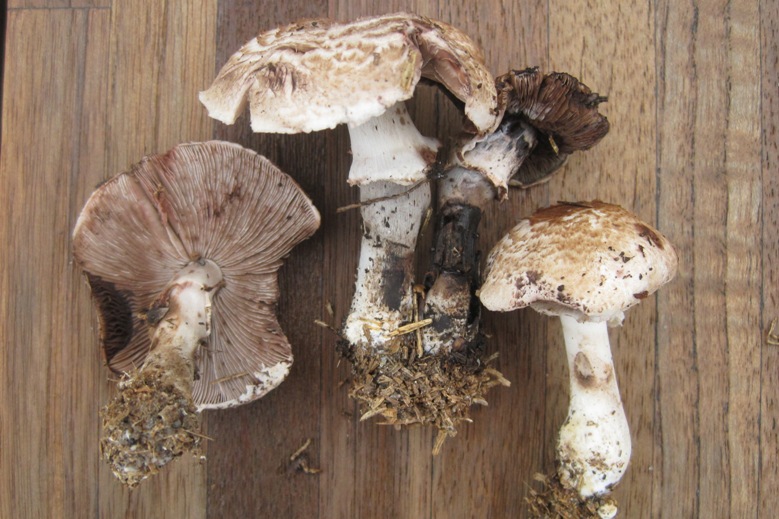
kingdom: Fungi
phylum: Basidiomycota
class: Agaricomycetes
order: Agaricales
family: Agaricaceae
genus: Agaricus
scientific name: Agaricus sylvaticus
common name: lille blod-champignon
